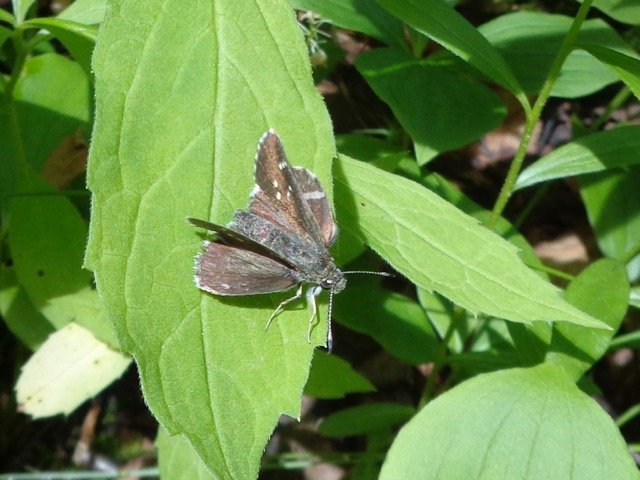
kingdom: Animalia
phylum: Arthropoda
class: Insecta
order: Lepidoptera
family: Hesperiidae
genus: Mastor
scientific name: Mastor hegon
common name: Pepper and Salt Skipper
